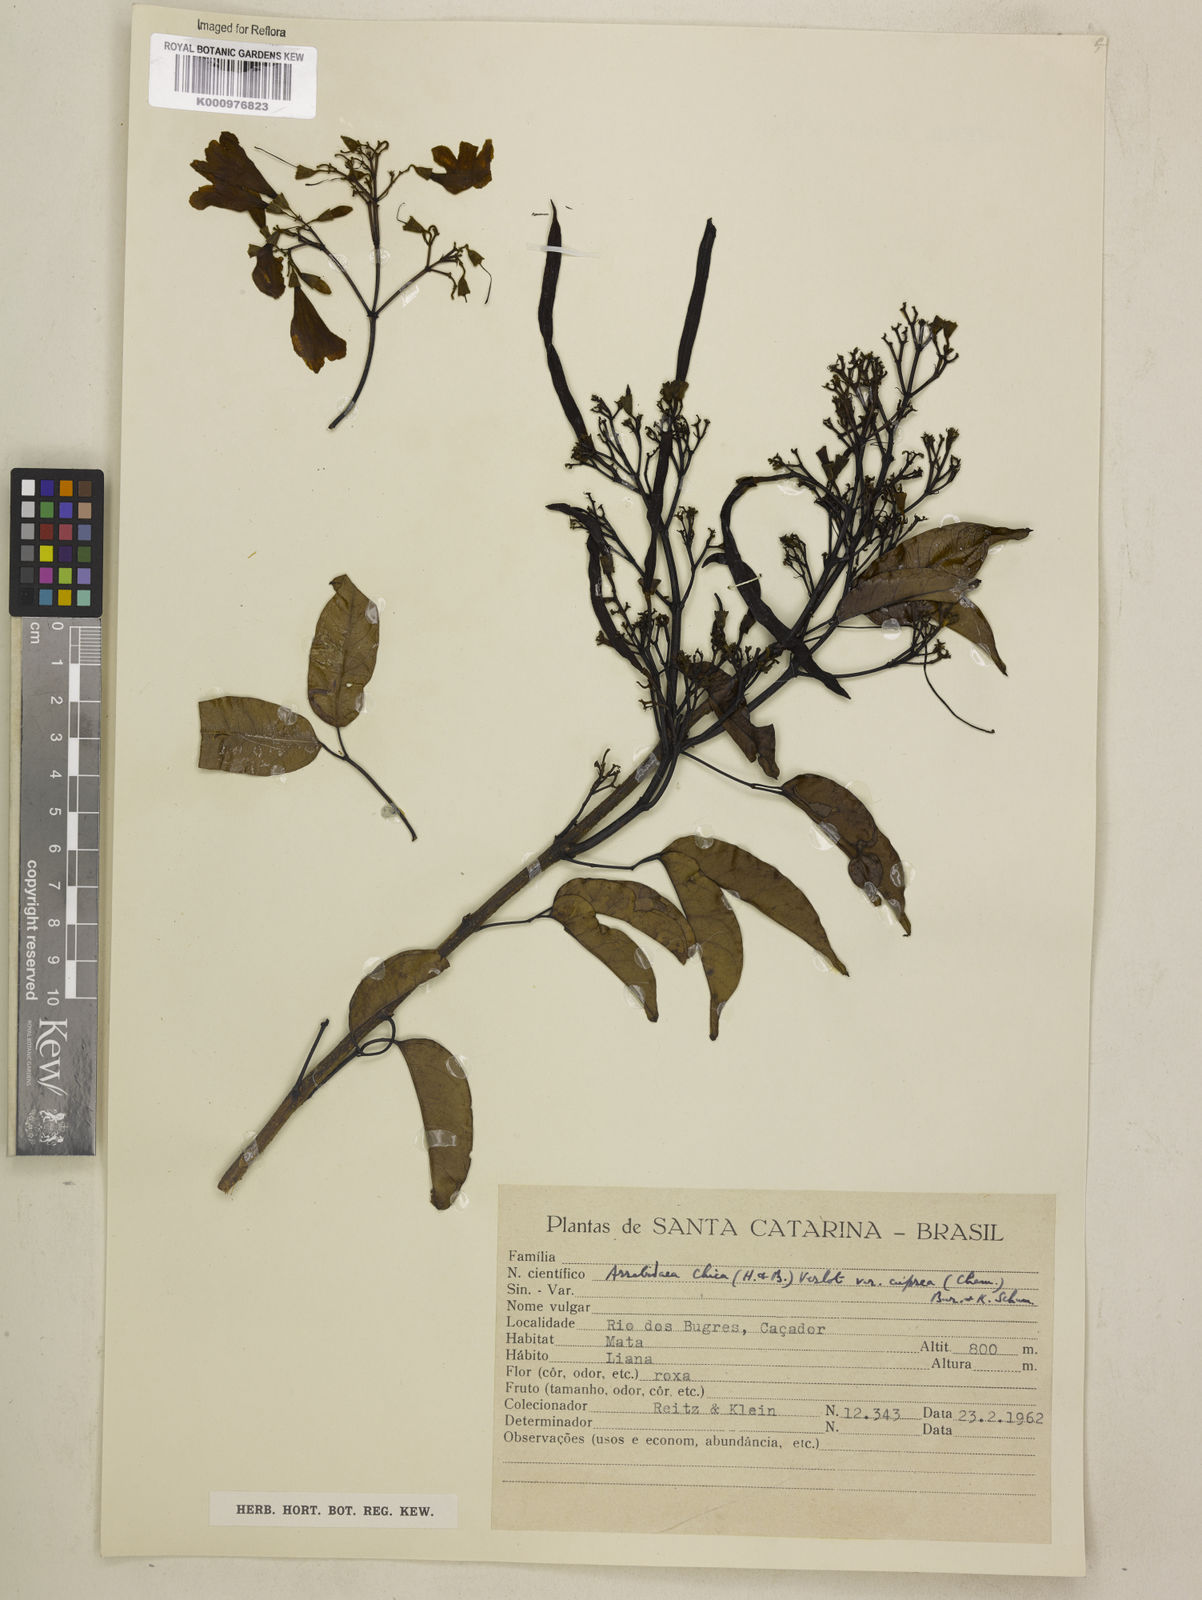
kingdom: Plantae
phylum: Tracheophyta
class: Magnoliopsida
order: Lamiales
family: Bignoniaceae
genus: Fridericia
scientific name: Fridericia chica
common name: Cricketvine
